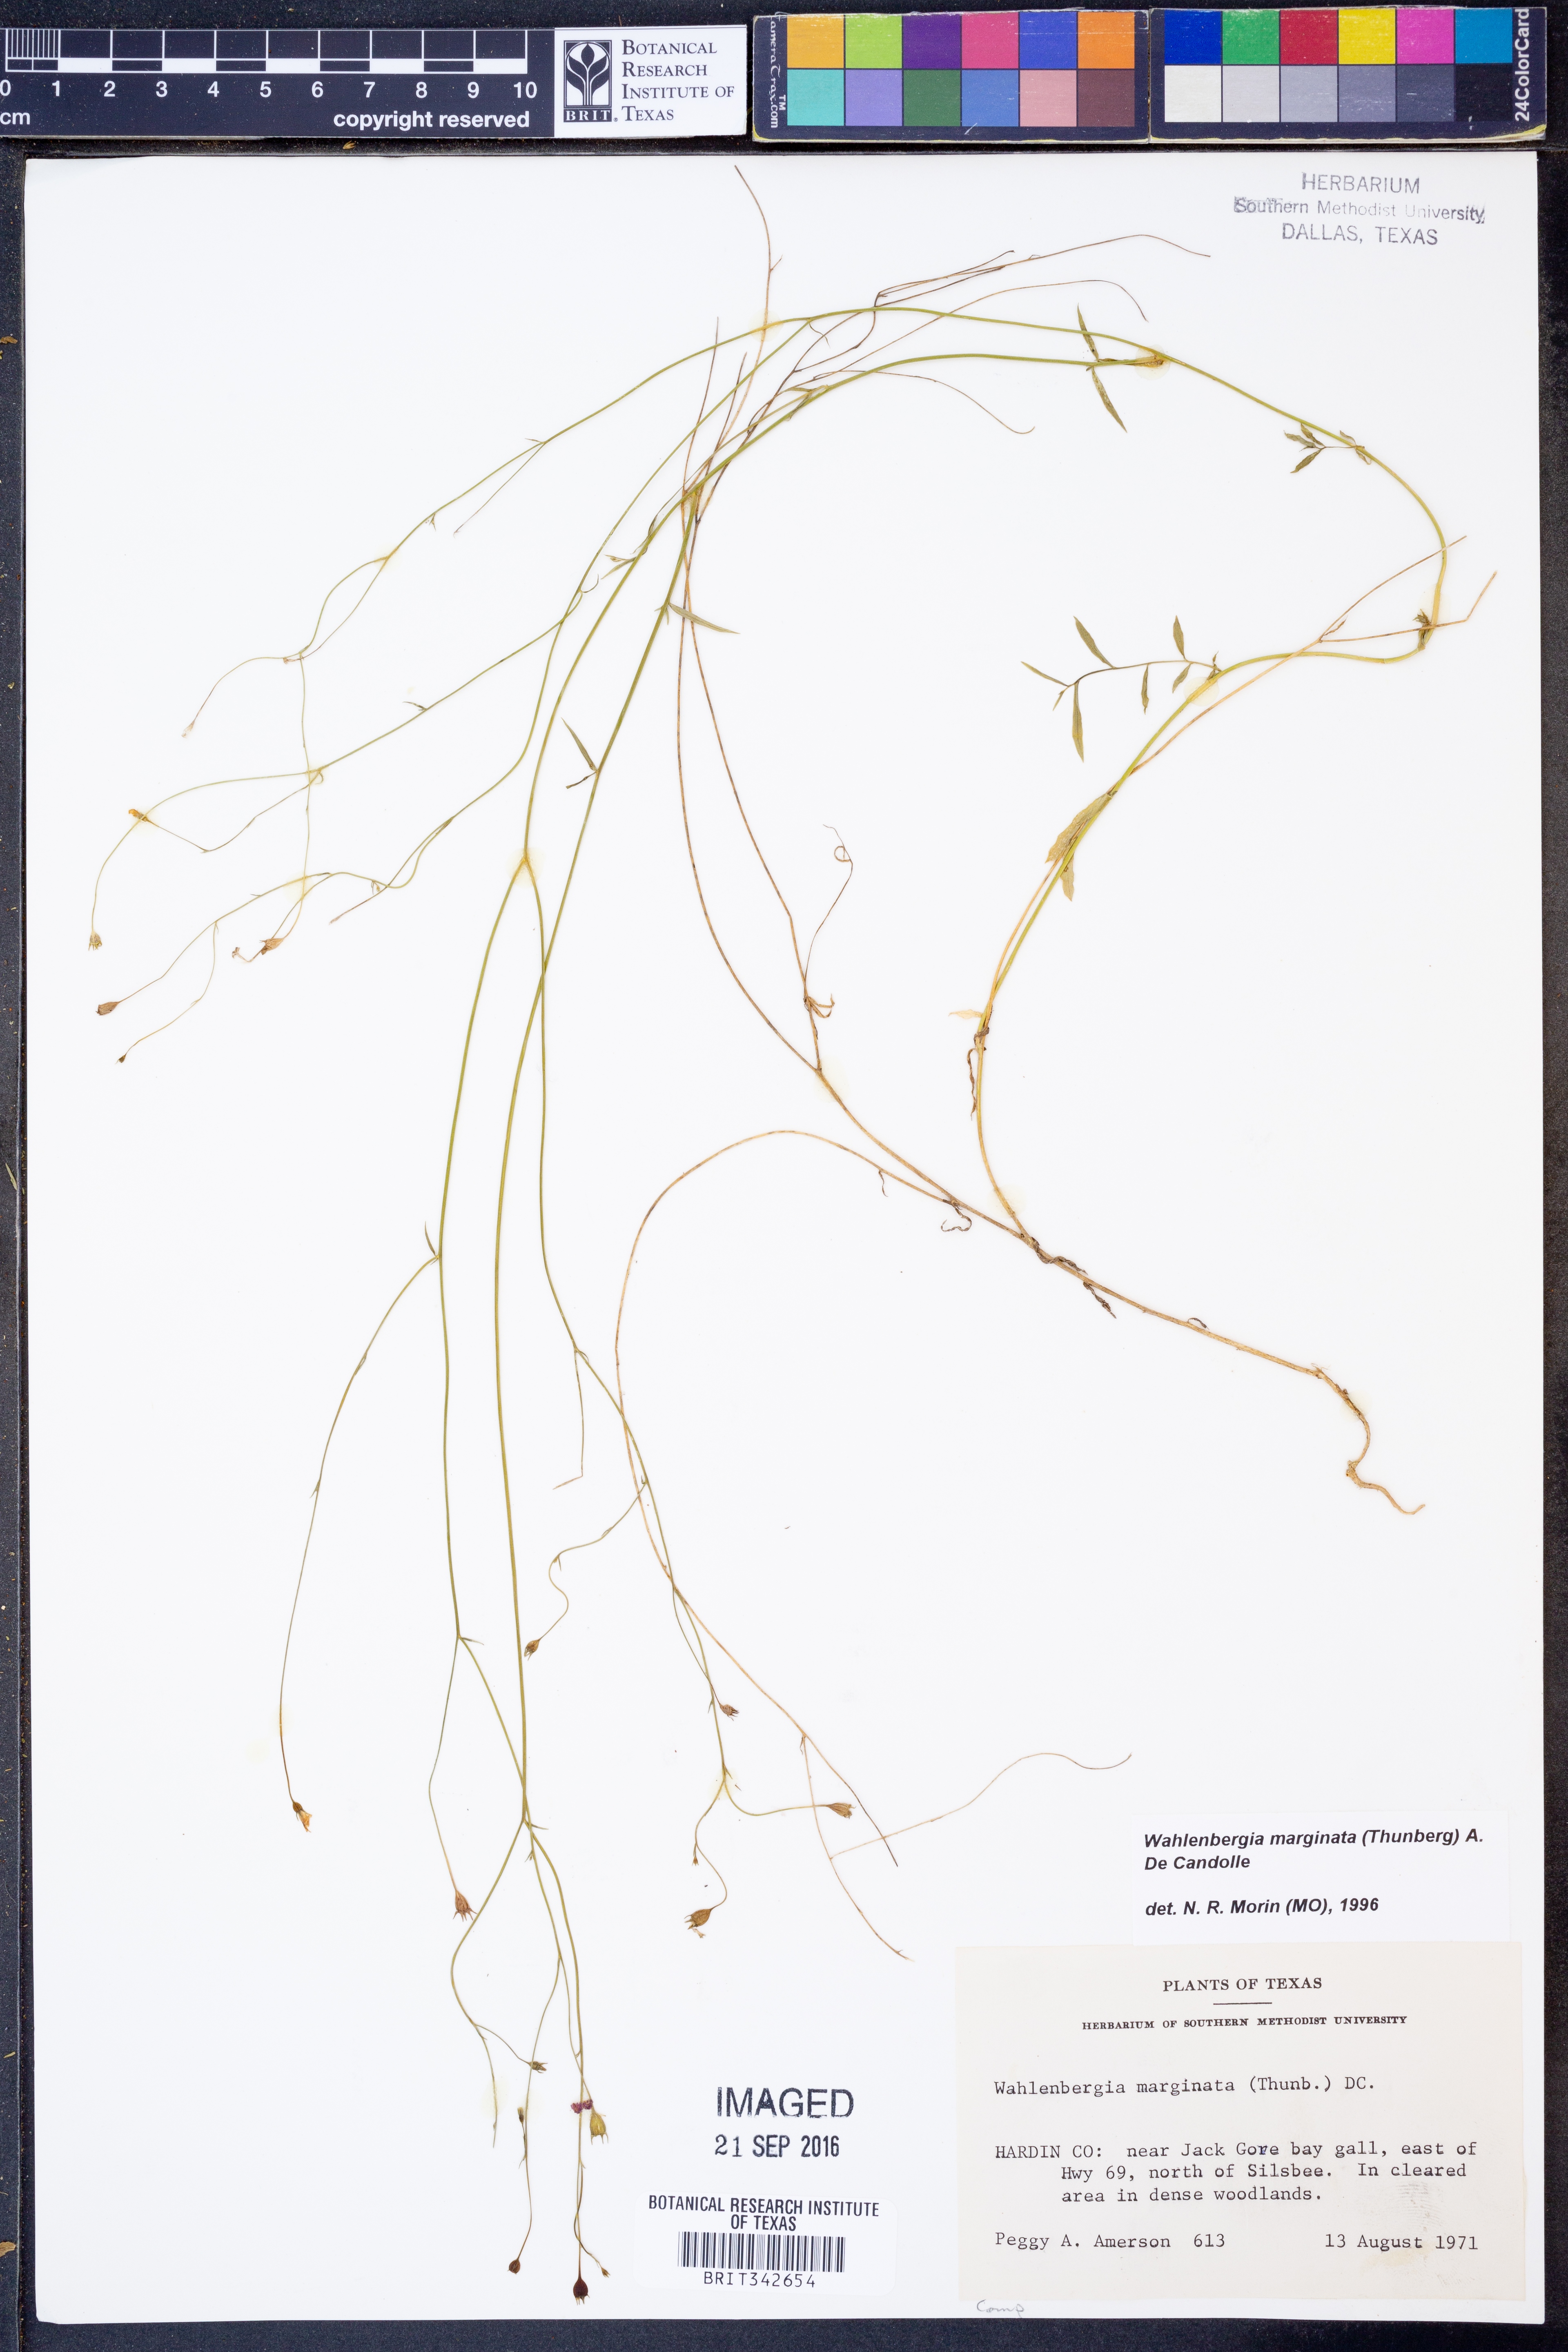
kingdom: Plantae
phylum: Tracheophyta
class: Magnoliopsida
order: Asterales
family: Campanulaceae
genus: Wahlenbergia
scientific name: Wahlenbergia marginata
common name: Southern rockbell
